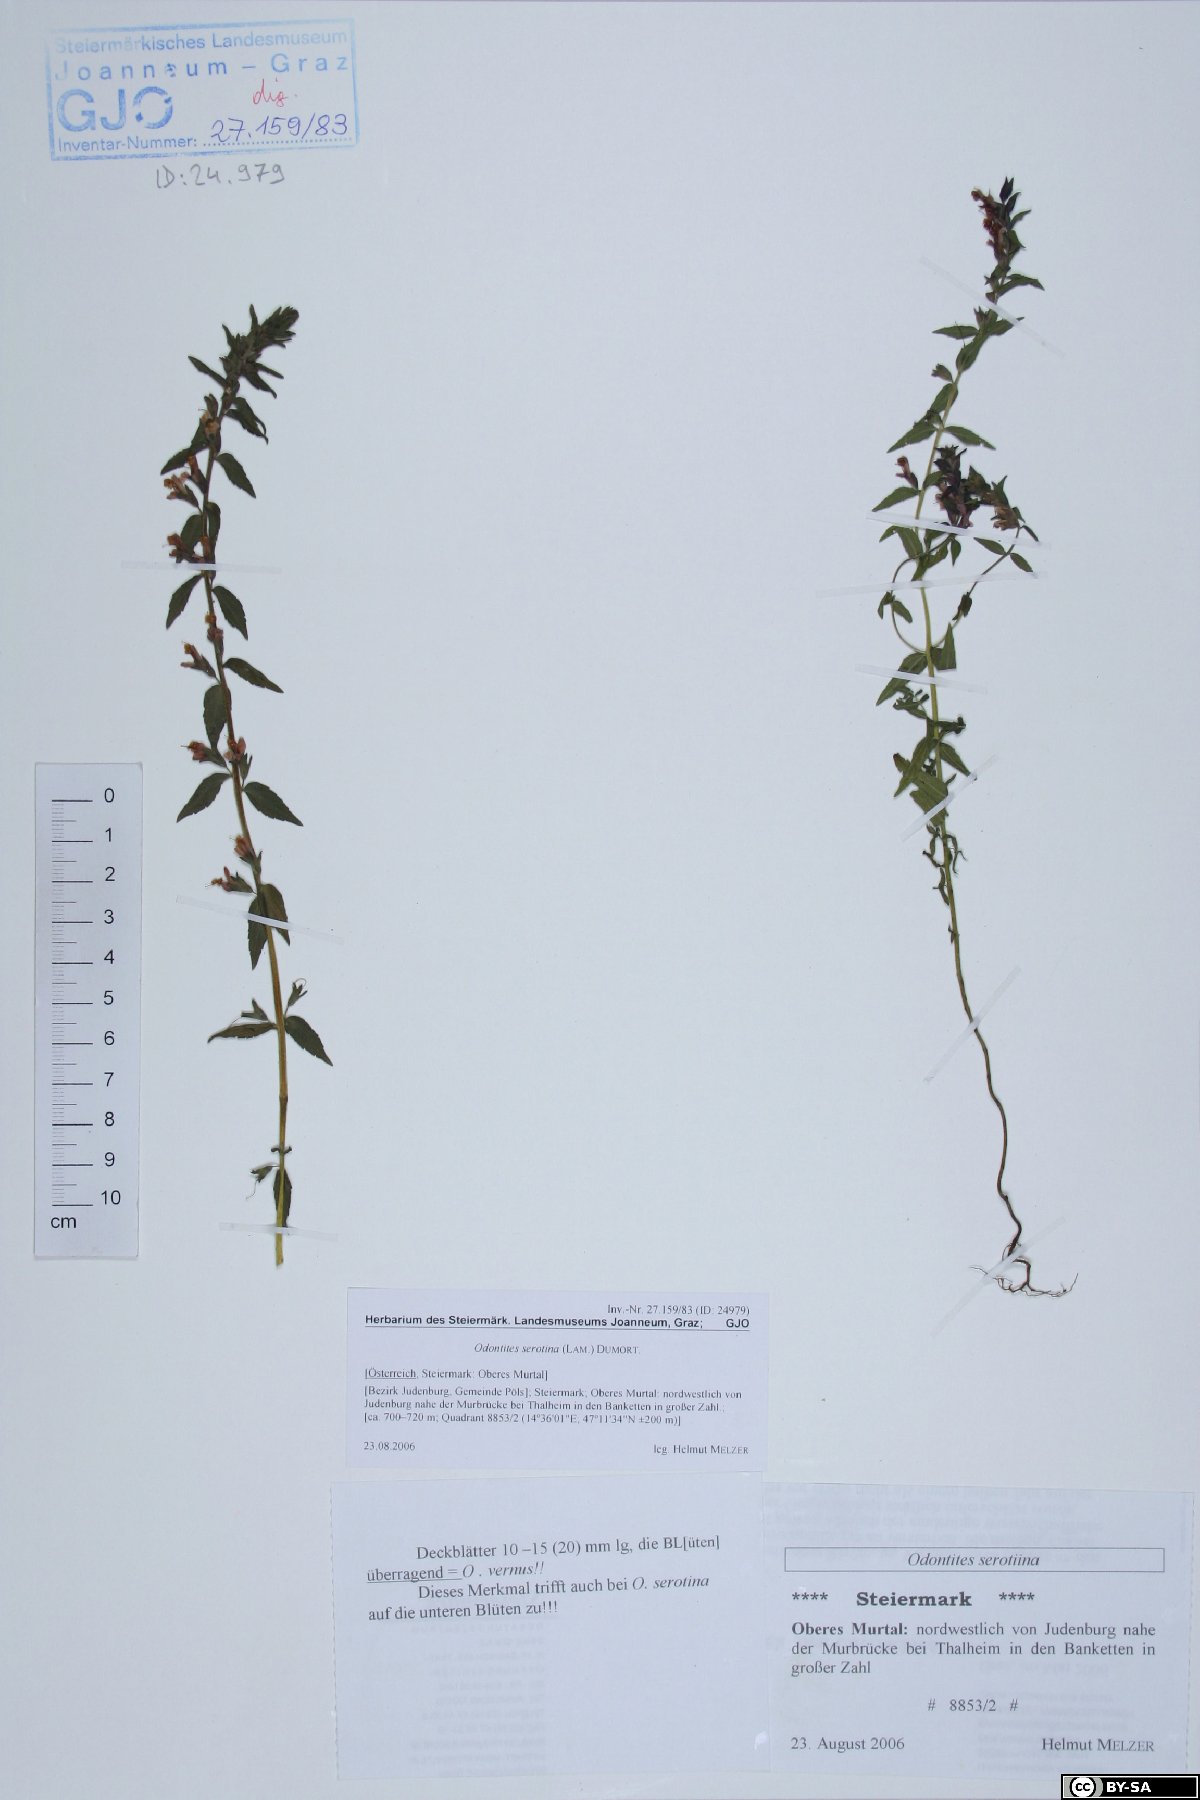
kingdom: Plantae
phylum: Tracheophyta
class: Magnoliopsida
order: Lamiales
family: Orobanchaceae
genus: Odontites
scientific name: Odontites vulgaris
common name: Broomrape
